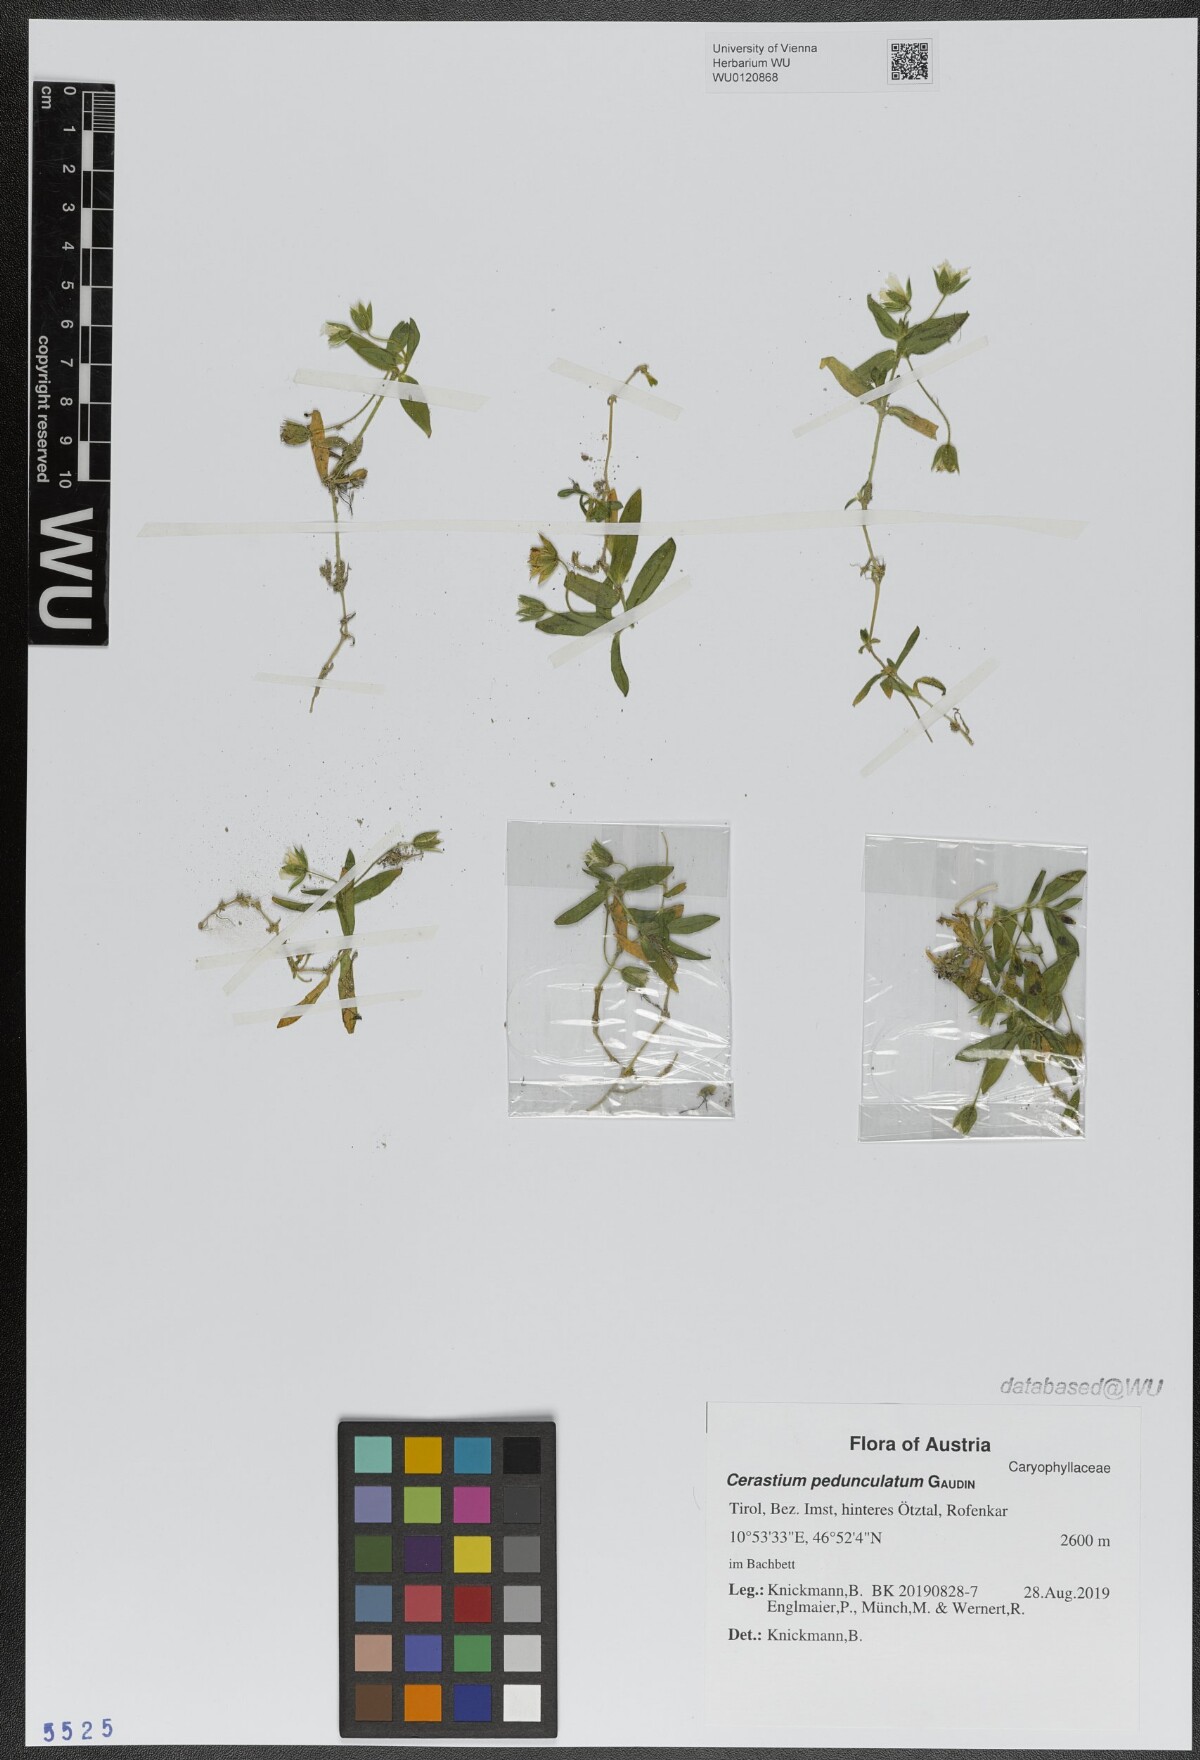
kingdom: Plantae
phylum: Tracheophyta
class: Magnoliopsida
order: Caryophyllales
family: Caryophyllaceae
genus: Cerastium
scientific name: Cerastium pedunculatum
